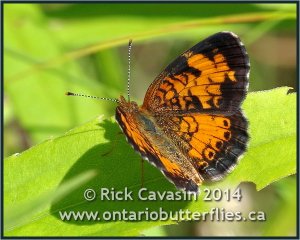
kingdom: Animalia
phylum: Arthropoda
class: Insecta
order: Lepidoptera
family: Nymphalidae
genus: Phyciodes
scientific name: Phyciodes tharos
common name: Northern Crescent
